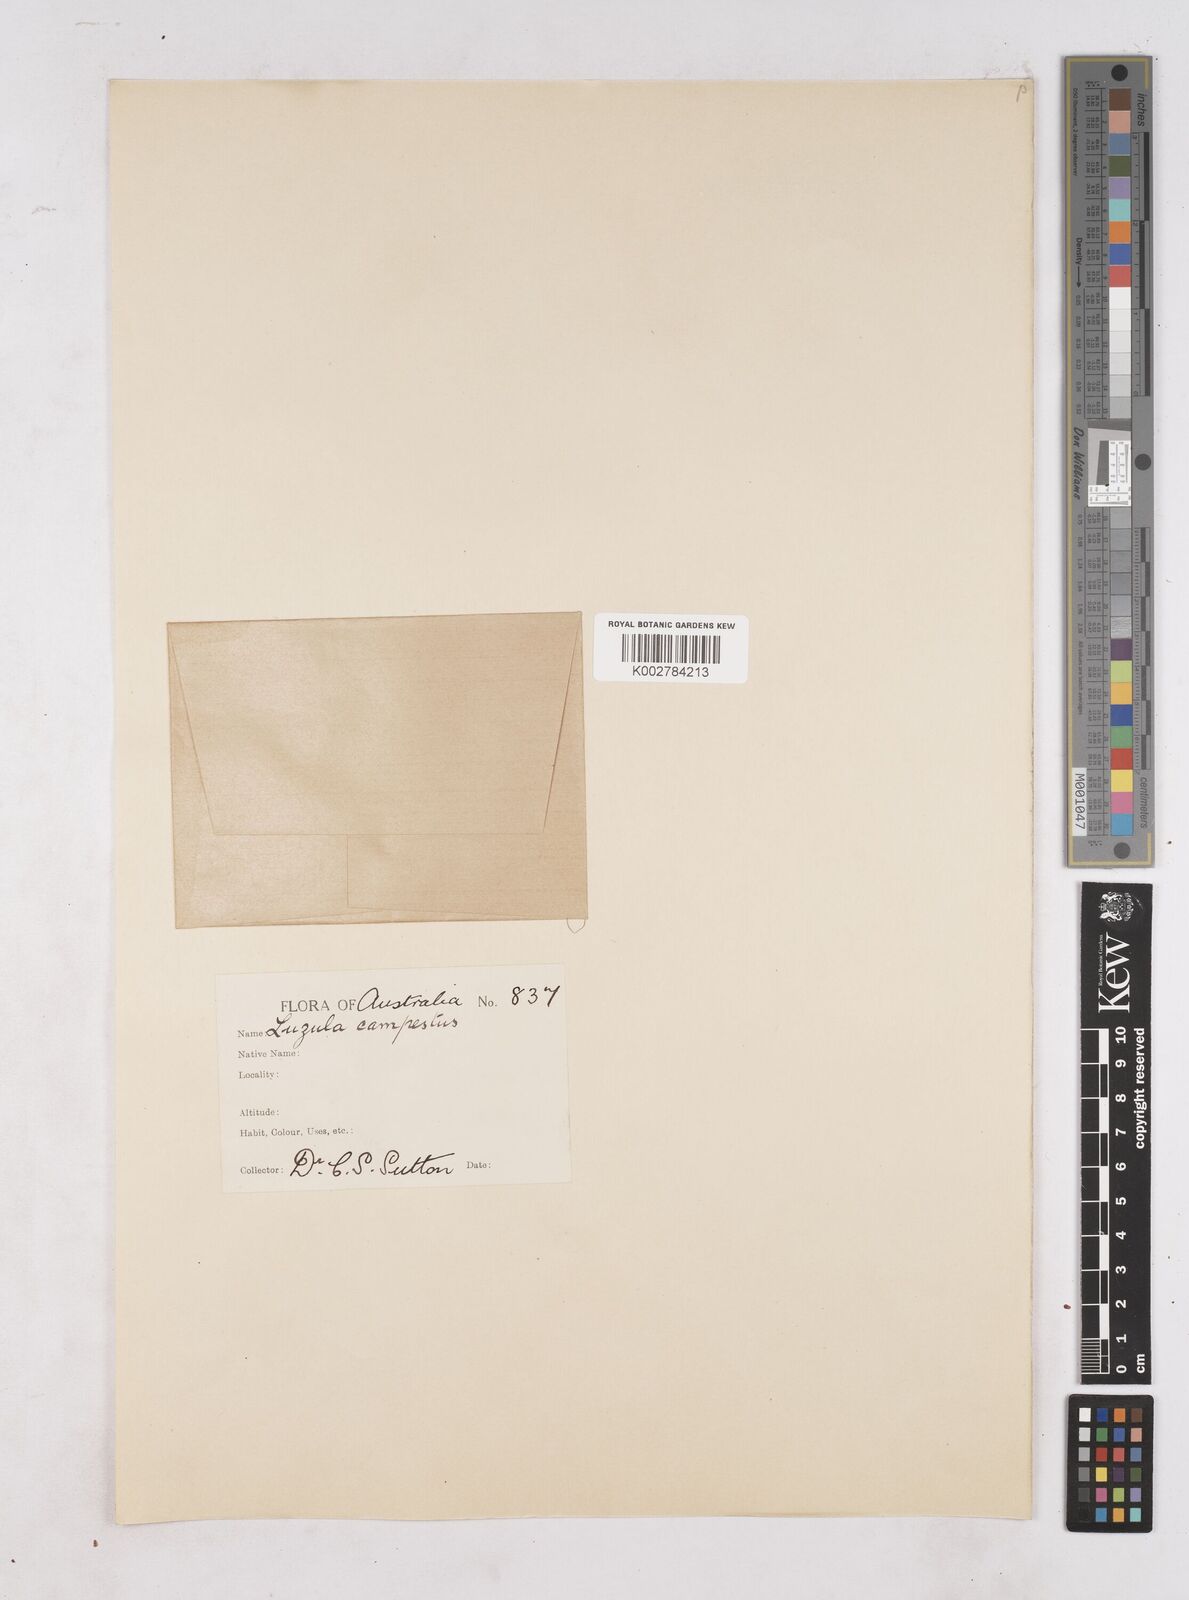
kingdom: Plantae
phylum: Tracheophyta
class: Liliopsida
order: Poales
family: Juncaceae
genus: Luzula
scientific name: Luzula campestris
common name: Field wood-rush
